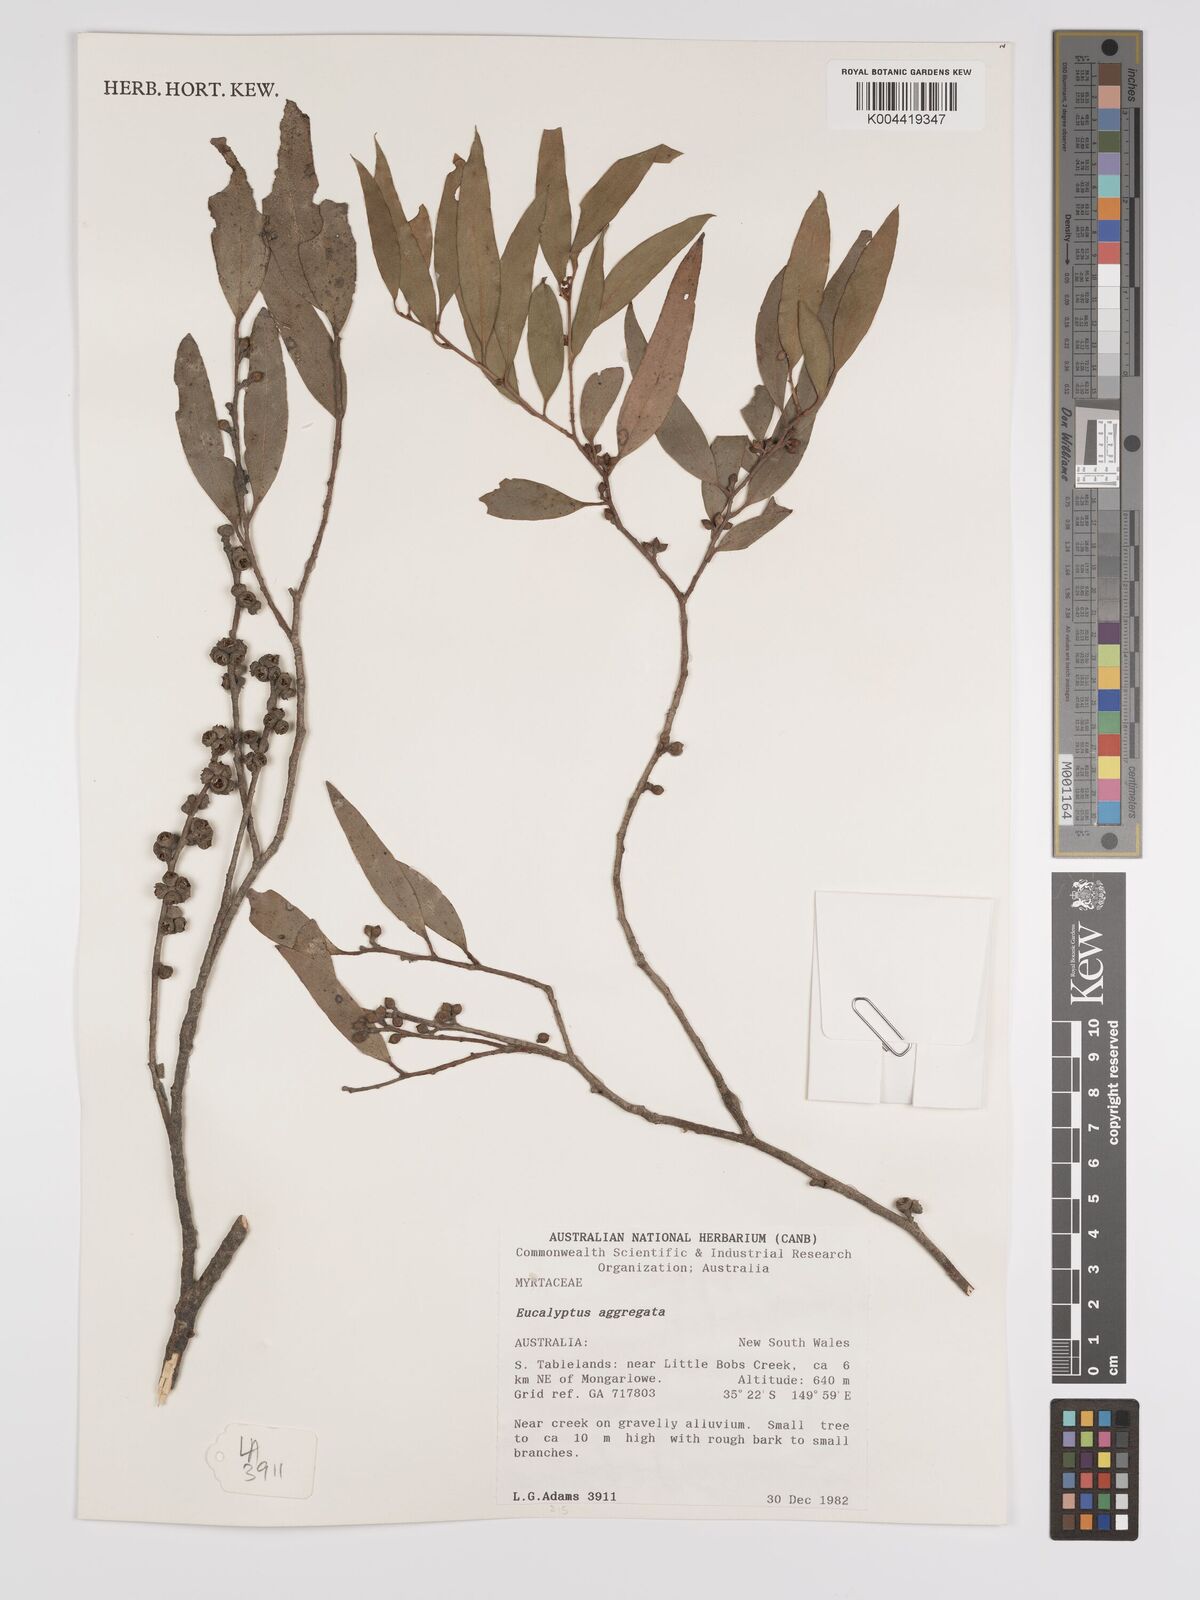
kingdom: Plantae
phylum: Tracheophyta
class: Magnoliopsida
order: Myrtales
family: Myrtaceae
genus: Eucalyptus
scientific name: Eucalyptus aggregata
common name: Black gum
